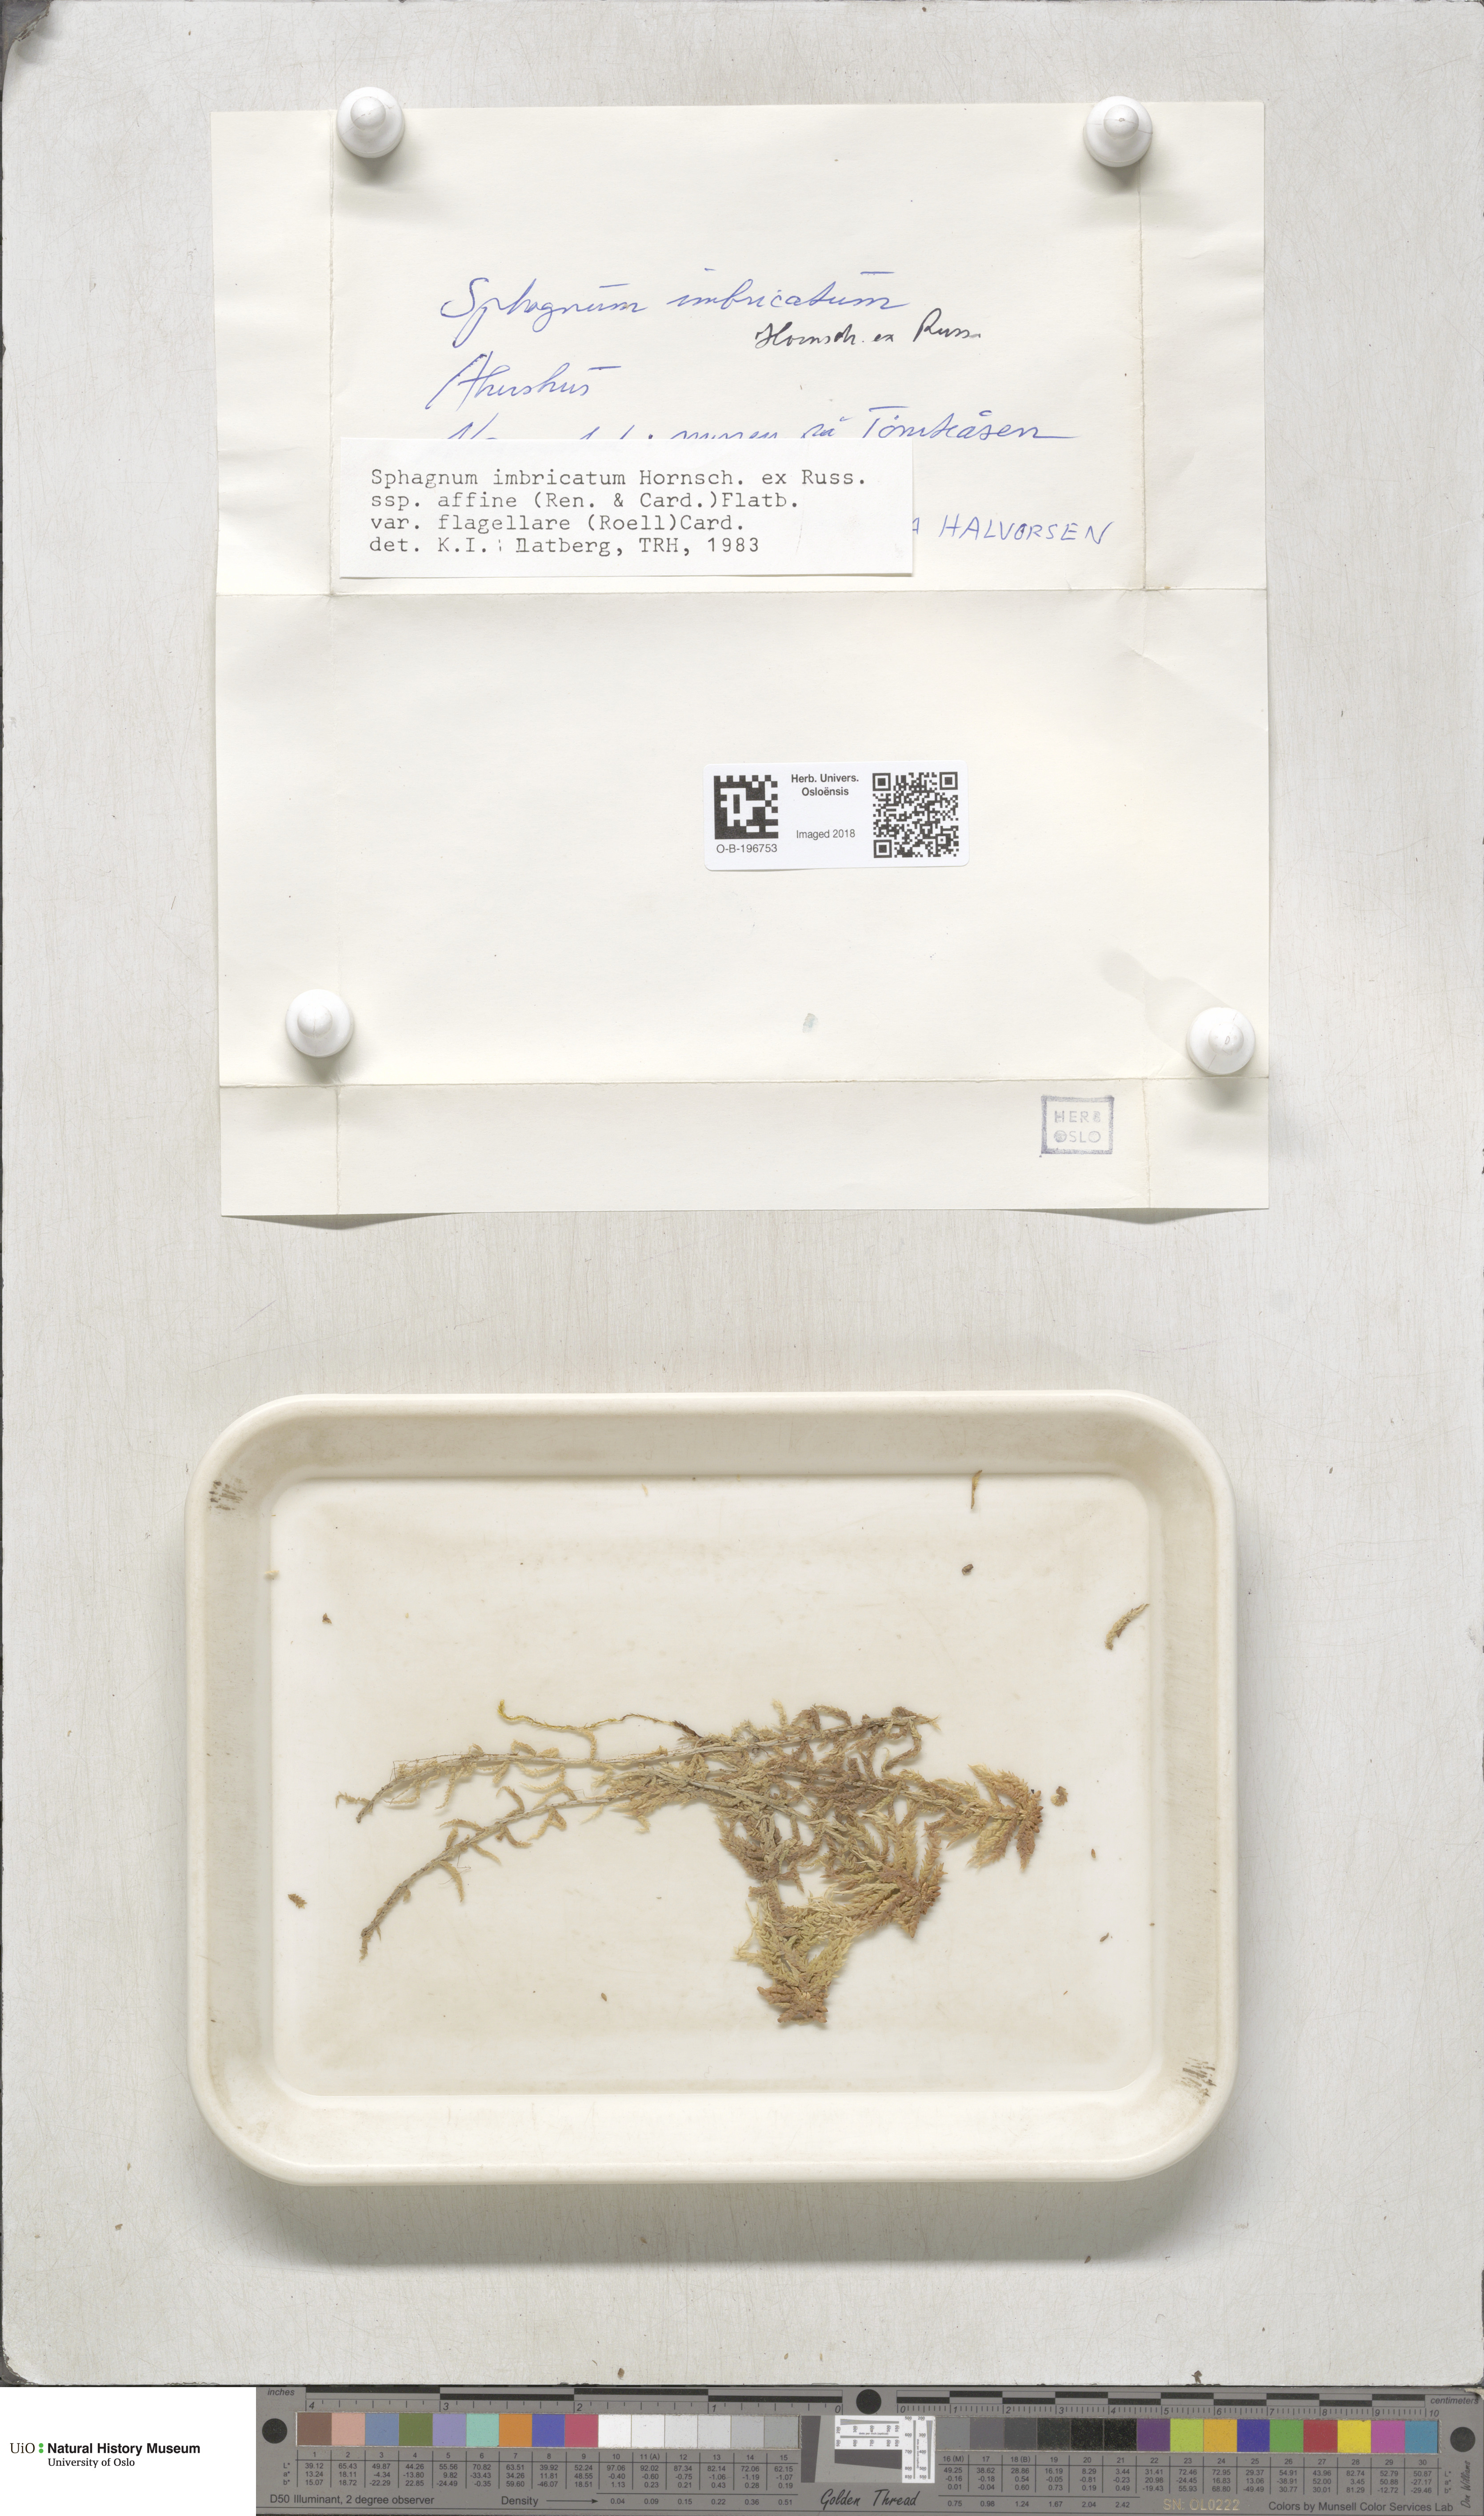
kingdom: Plantae
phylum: Bryophyta
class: Sphagnopsida
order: Sphagnales
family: Sphagnaceae
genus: Sphagnum
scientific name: Sphagnum affine
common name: Imbricate peat moss
